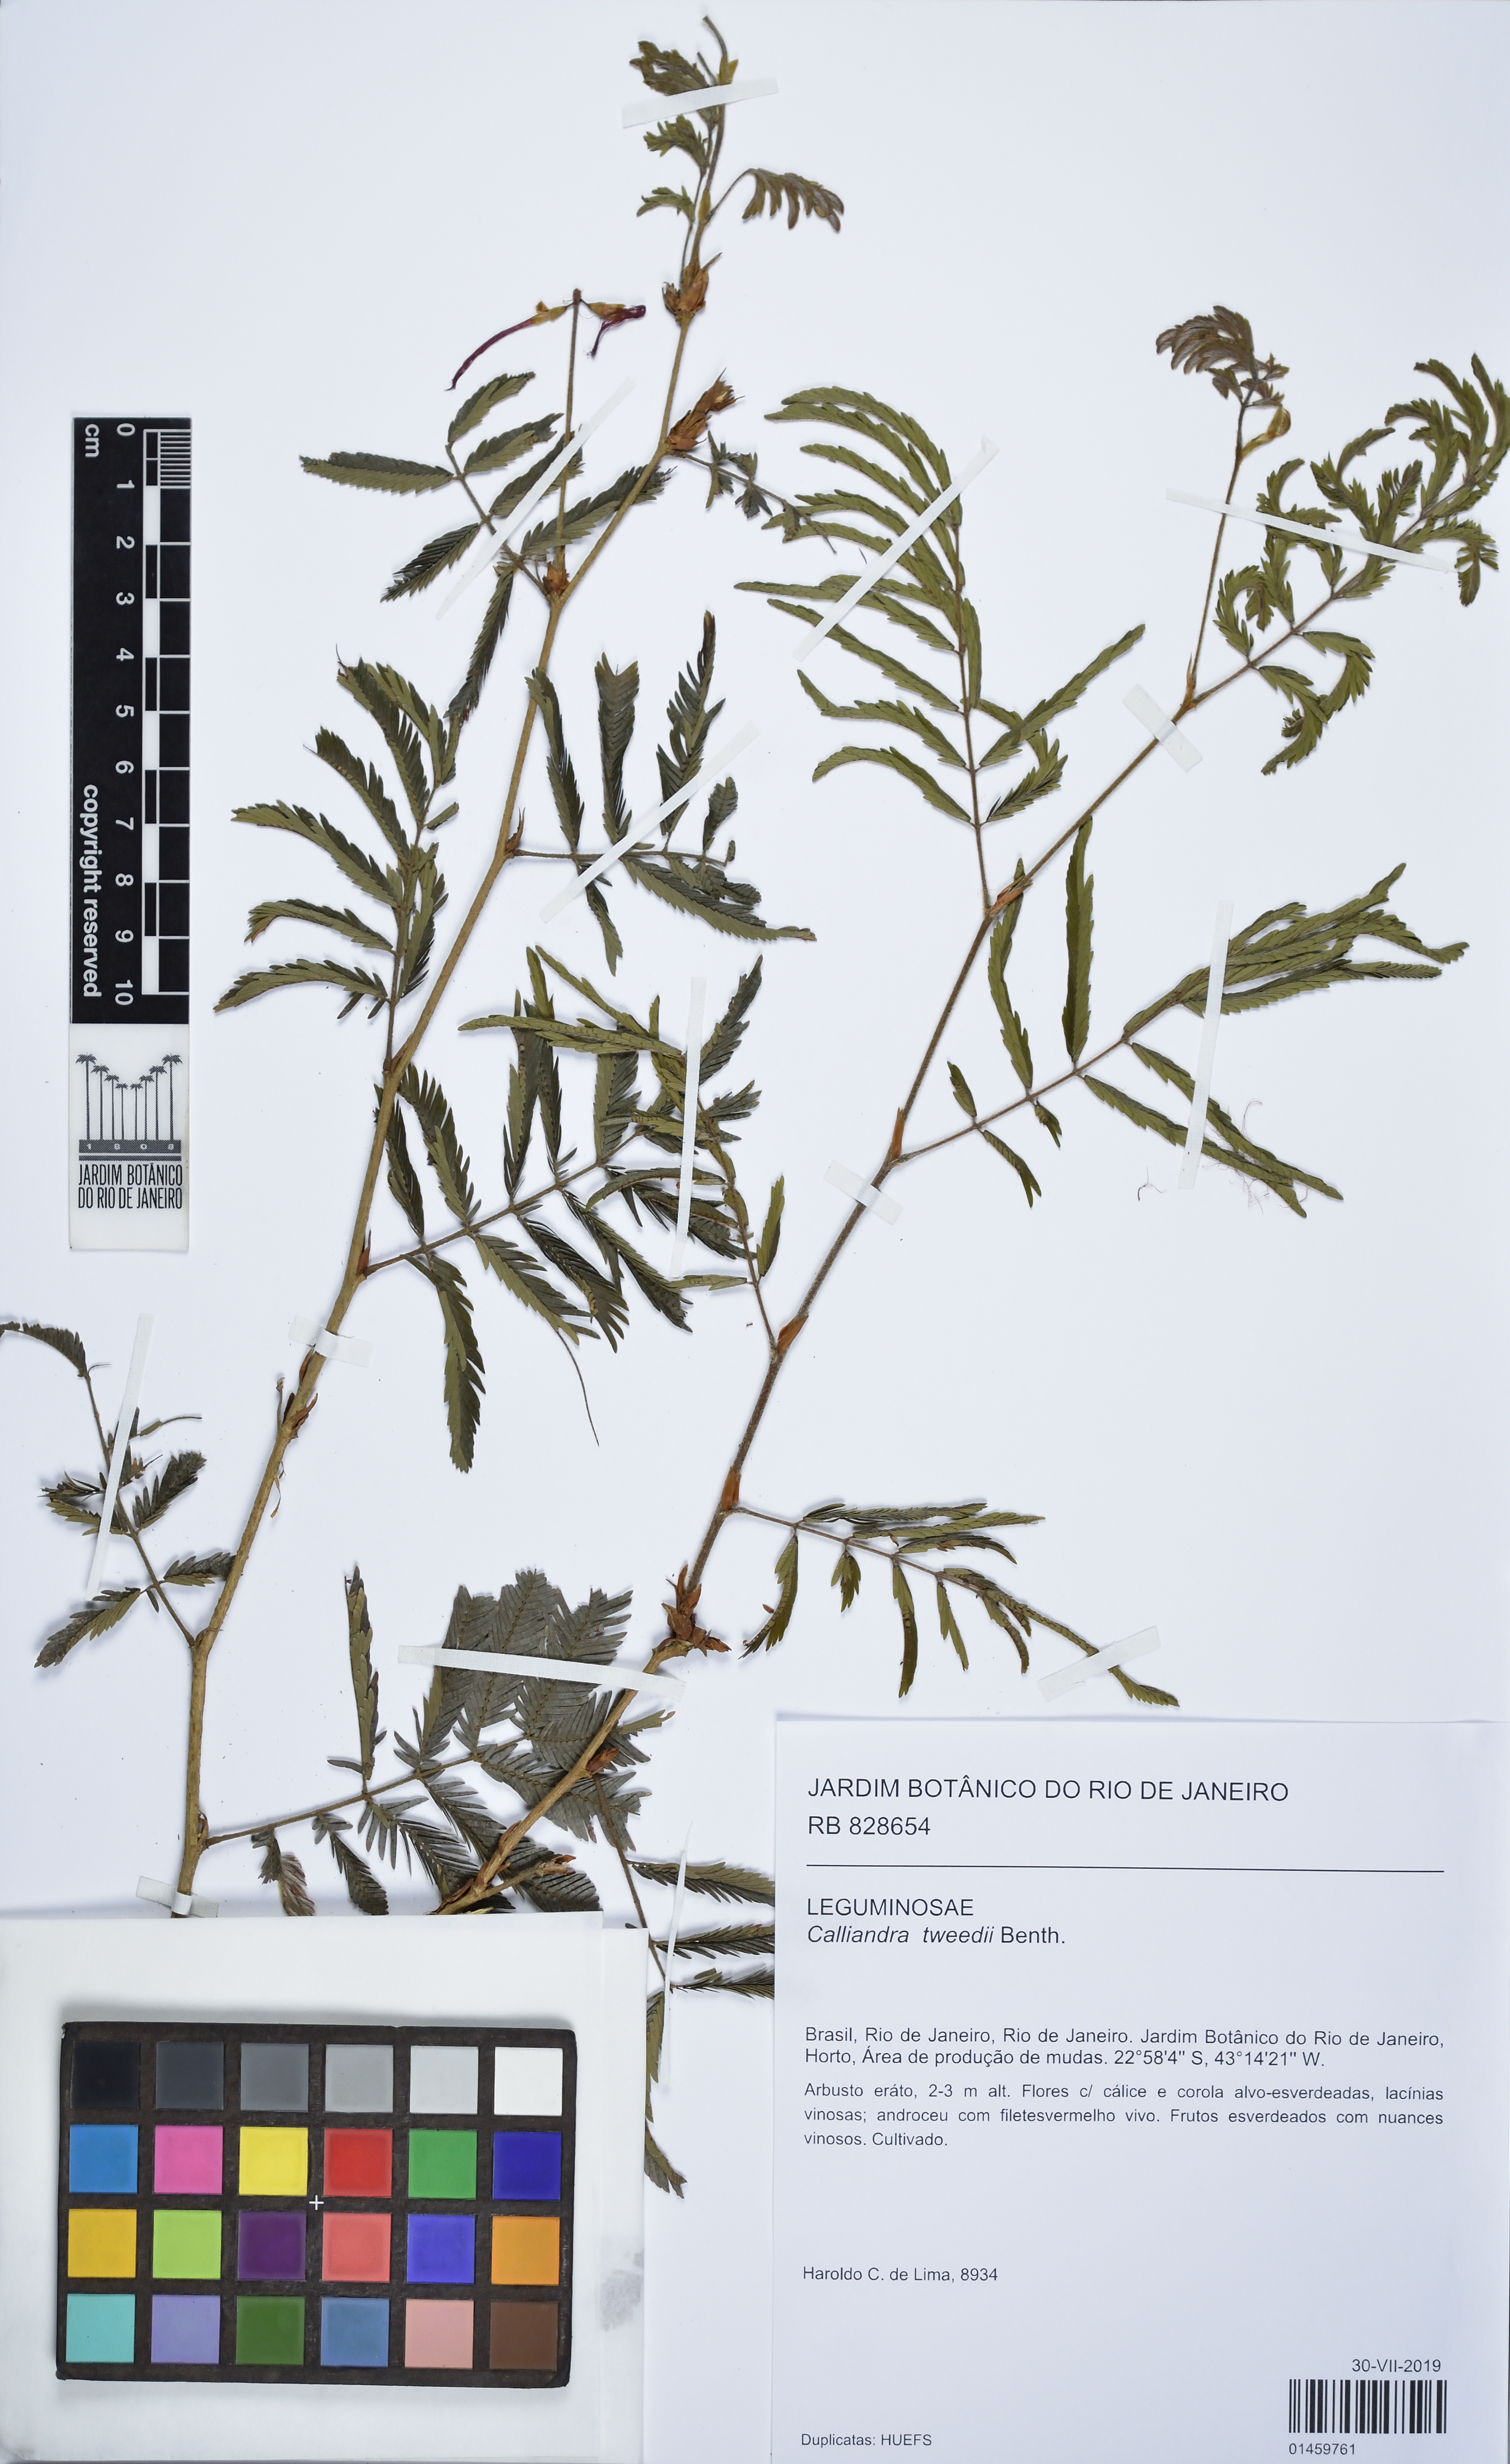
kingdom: Plantae
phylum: Tracheophyta
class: Magnoliopsida
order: Fabales
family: Fabaceae
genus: Calliandra
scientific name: Calliandra tweedii
